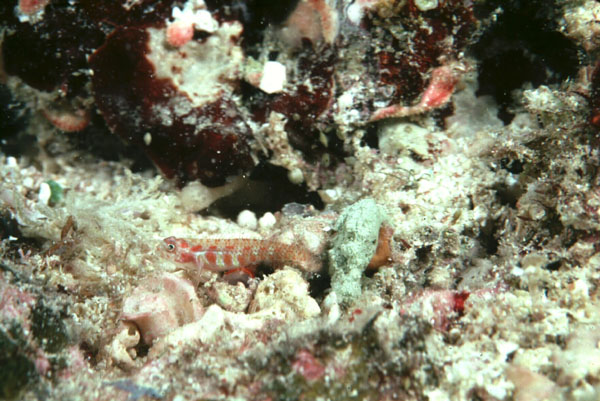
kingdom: Animalia
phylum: Chordata
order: Perciformes
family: Gobiidae
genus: Eviota
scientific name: Eviota guttata
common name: Green pygmy-goby
